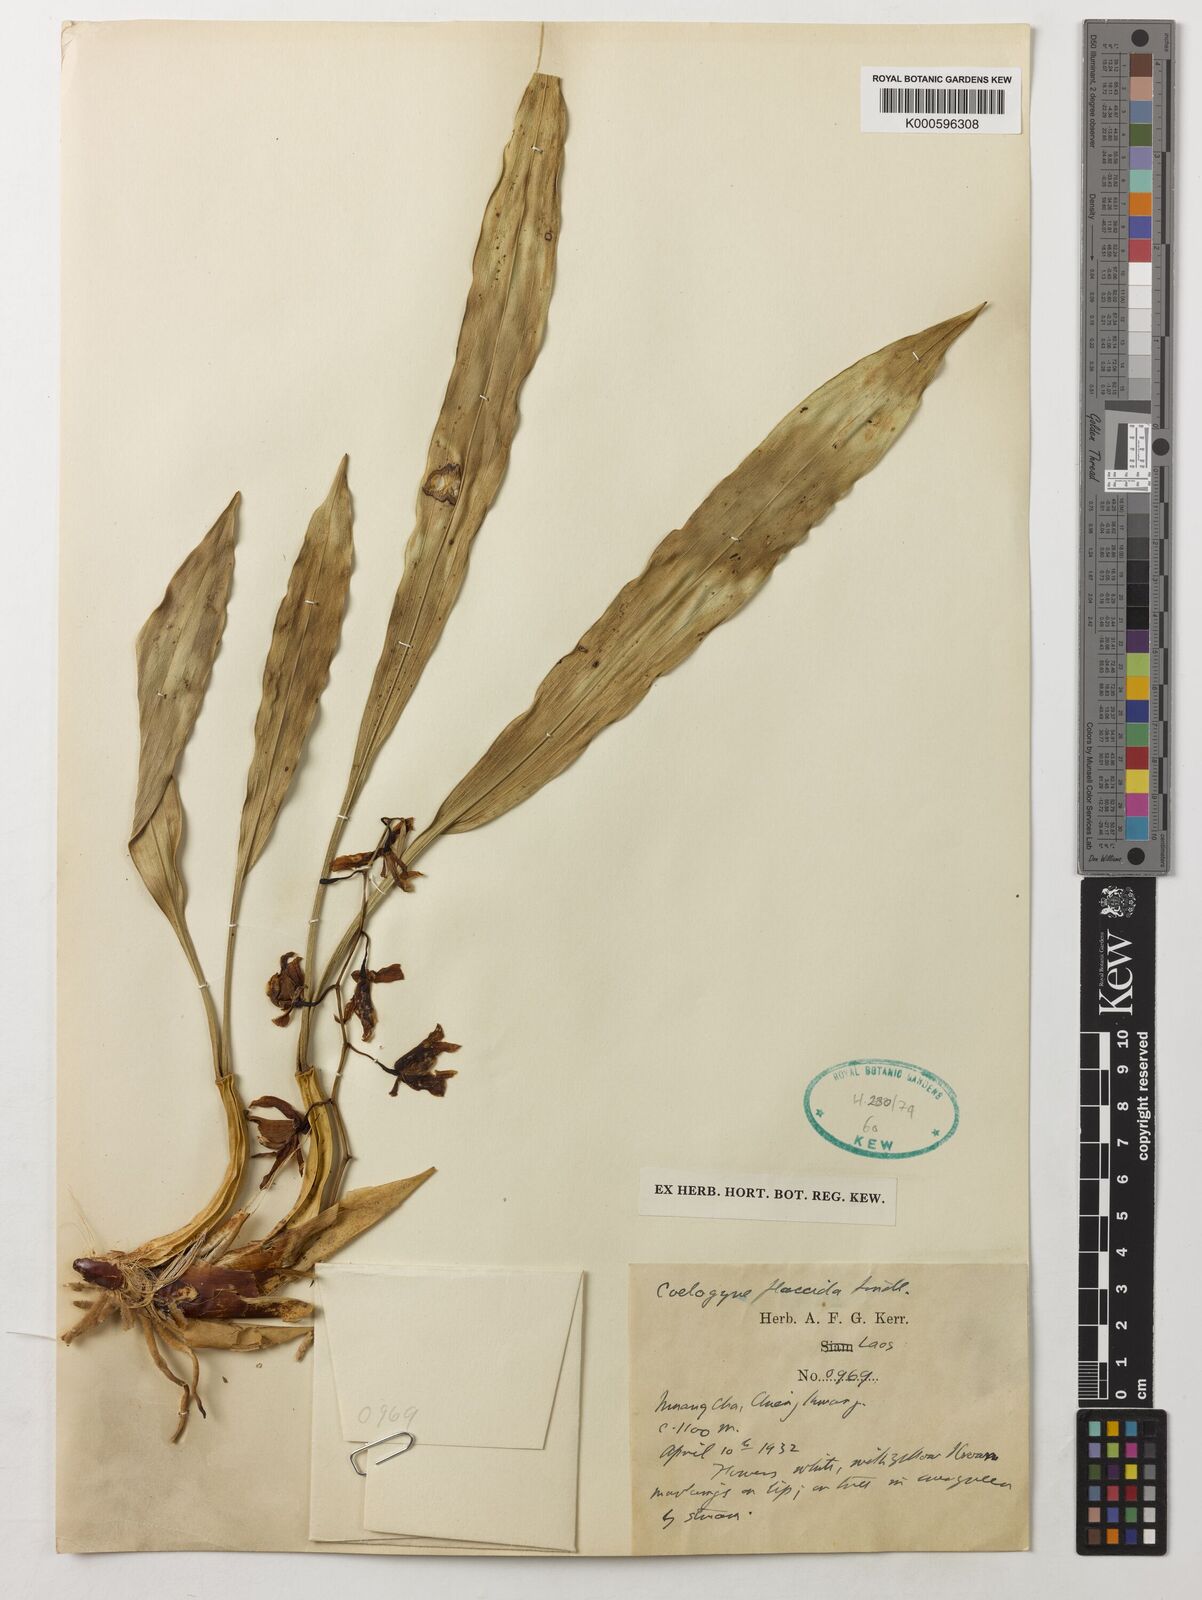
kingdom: Plantae
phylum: Tracheophyta
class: Liliopsida
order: Asparagales
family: Orchidaceae
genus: Coelogyne
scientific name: Coelogyne flaccida
